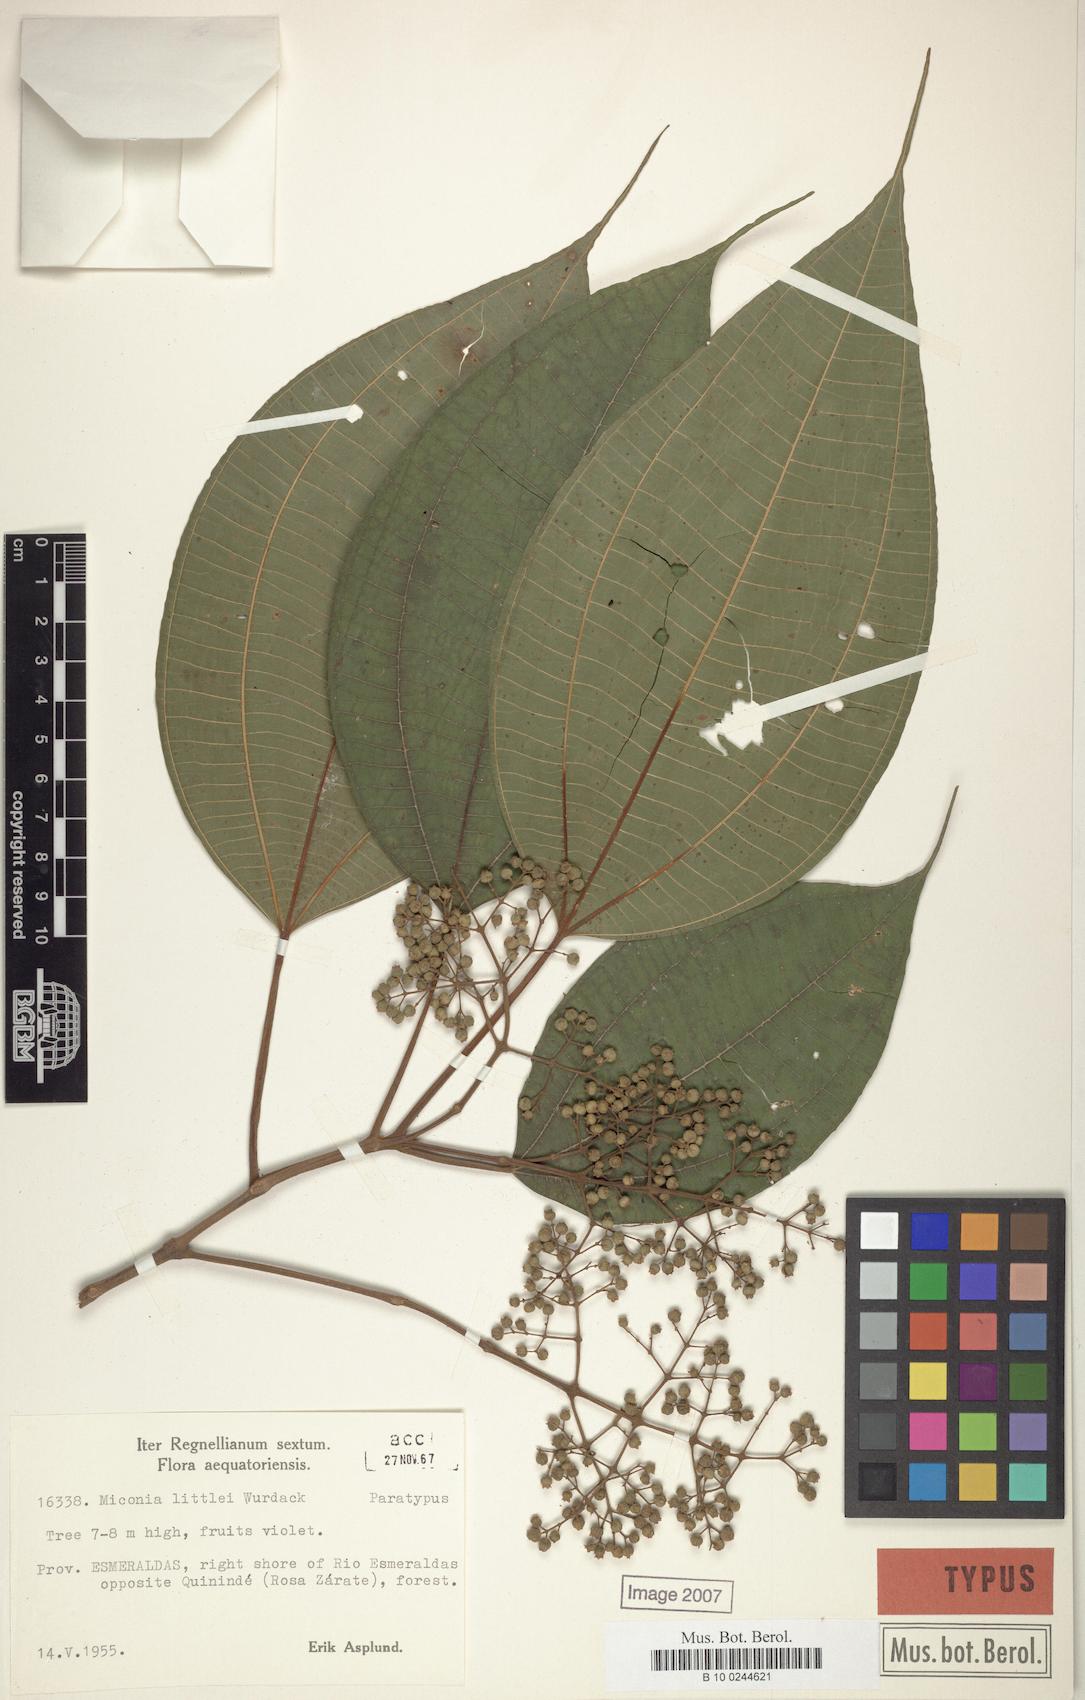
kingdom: Plantae
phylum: Tracheophyta
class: Magnoliopsida
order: Myrtales
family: Melastomataceae
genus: Miconia
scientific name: Miconia littlei
